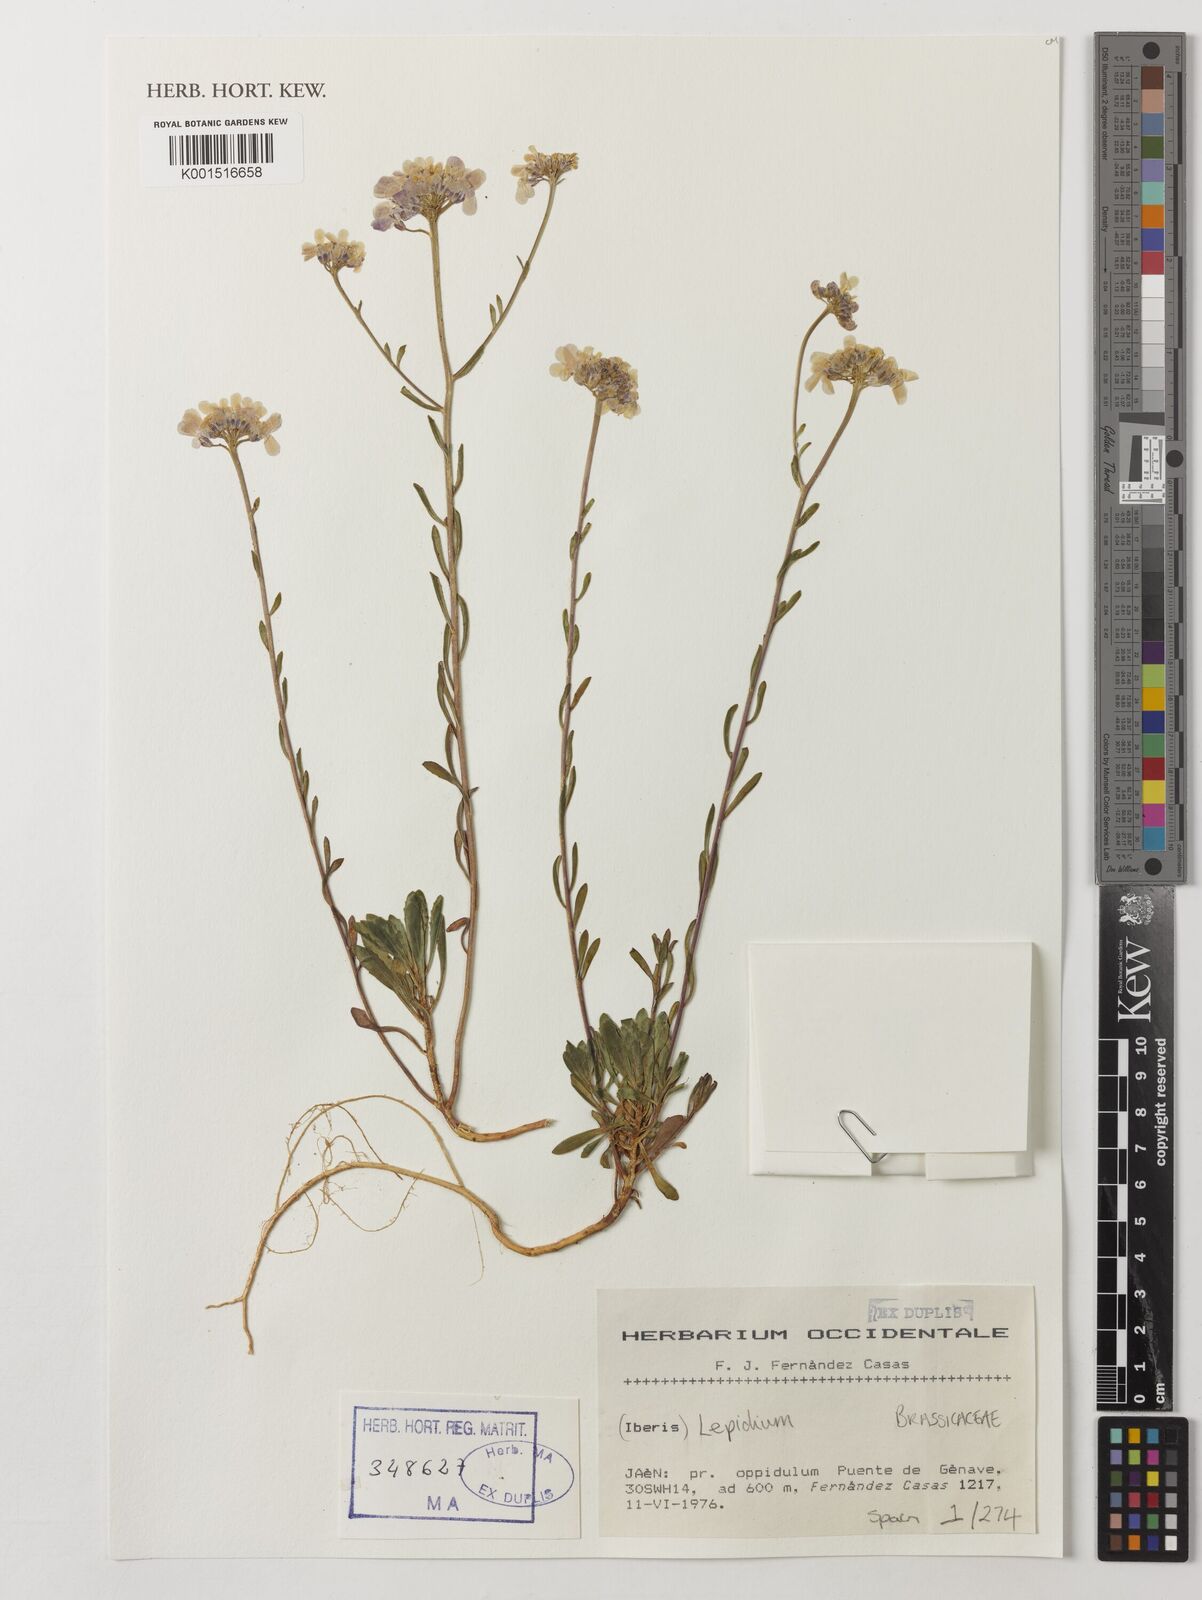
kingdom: Plantae
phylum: Tracheophyta
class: Magnoliopsida
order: Brassicales
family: Brassicaceae
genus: Lepidium
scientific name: Lepidium iberis
